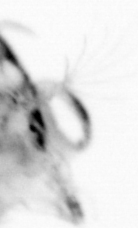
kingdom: Animalia
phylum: Arthropoda
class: Copepoda
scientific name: Copepoda
